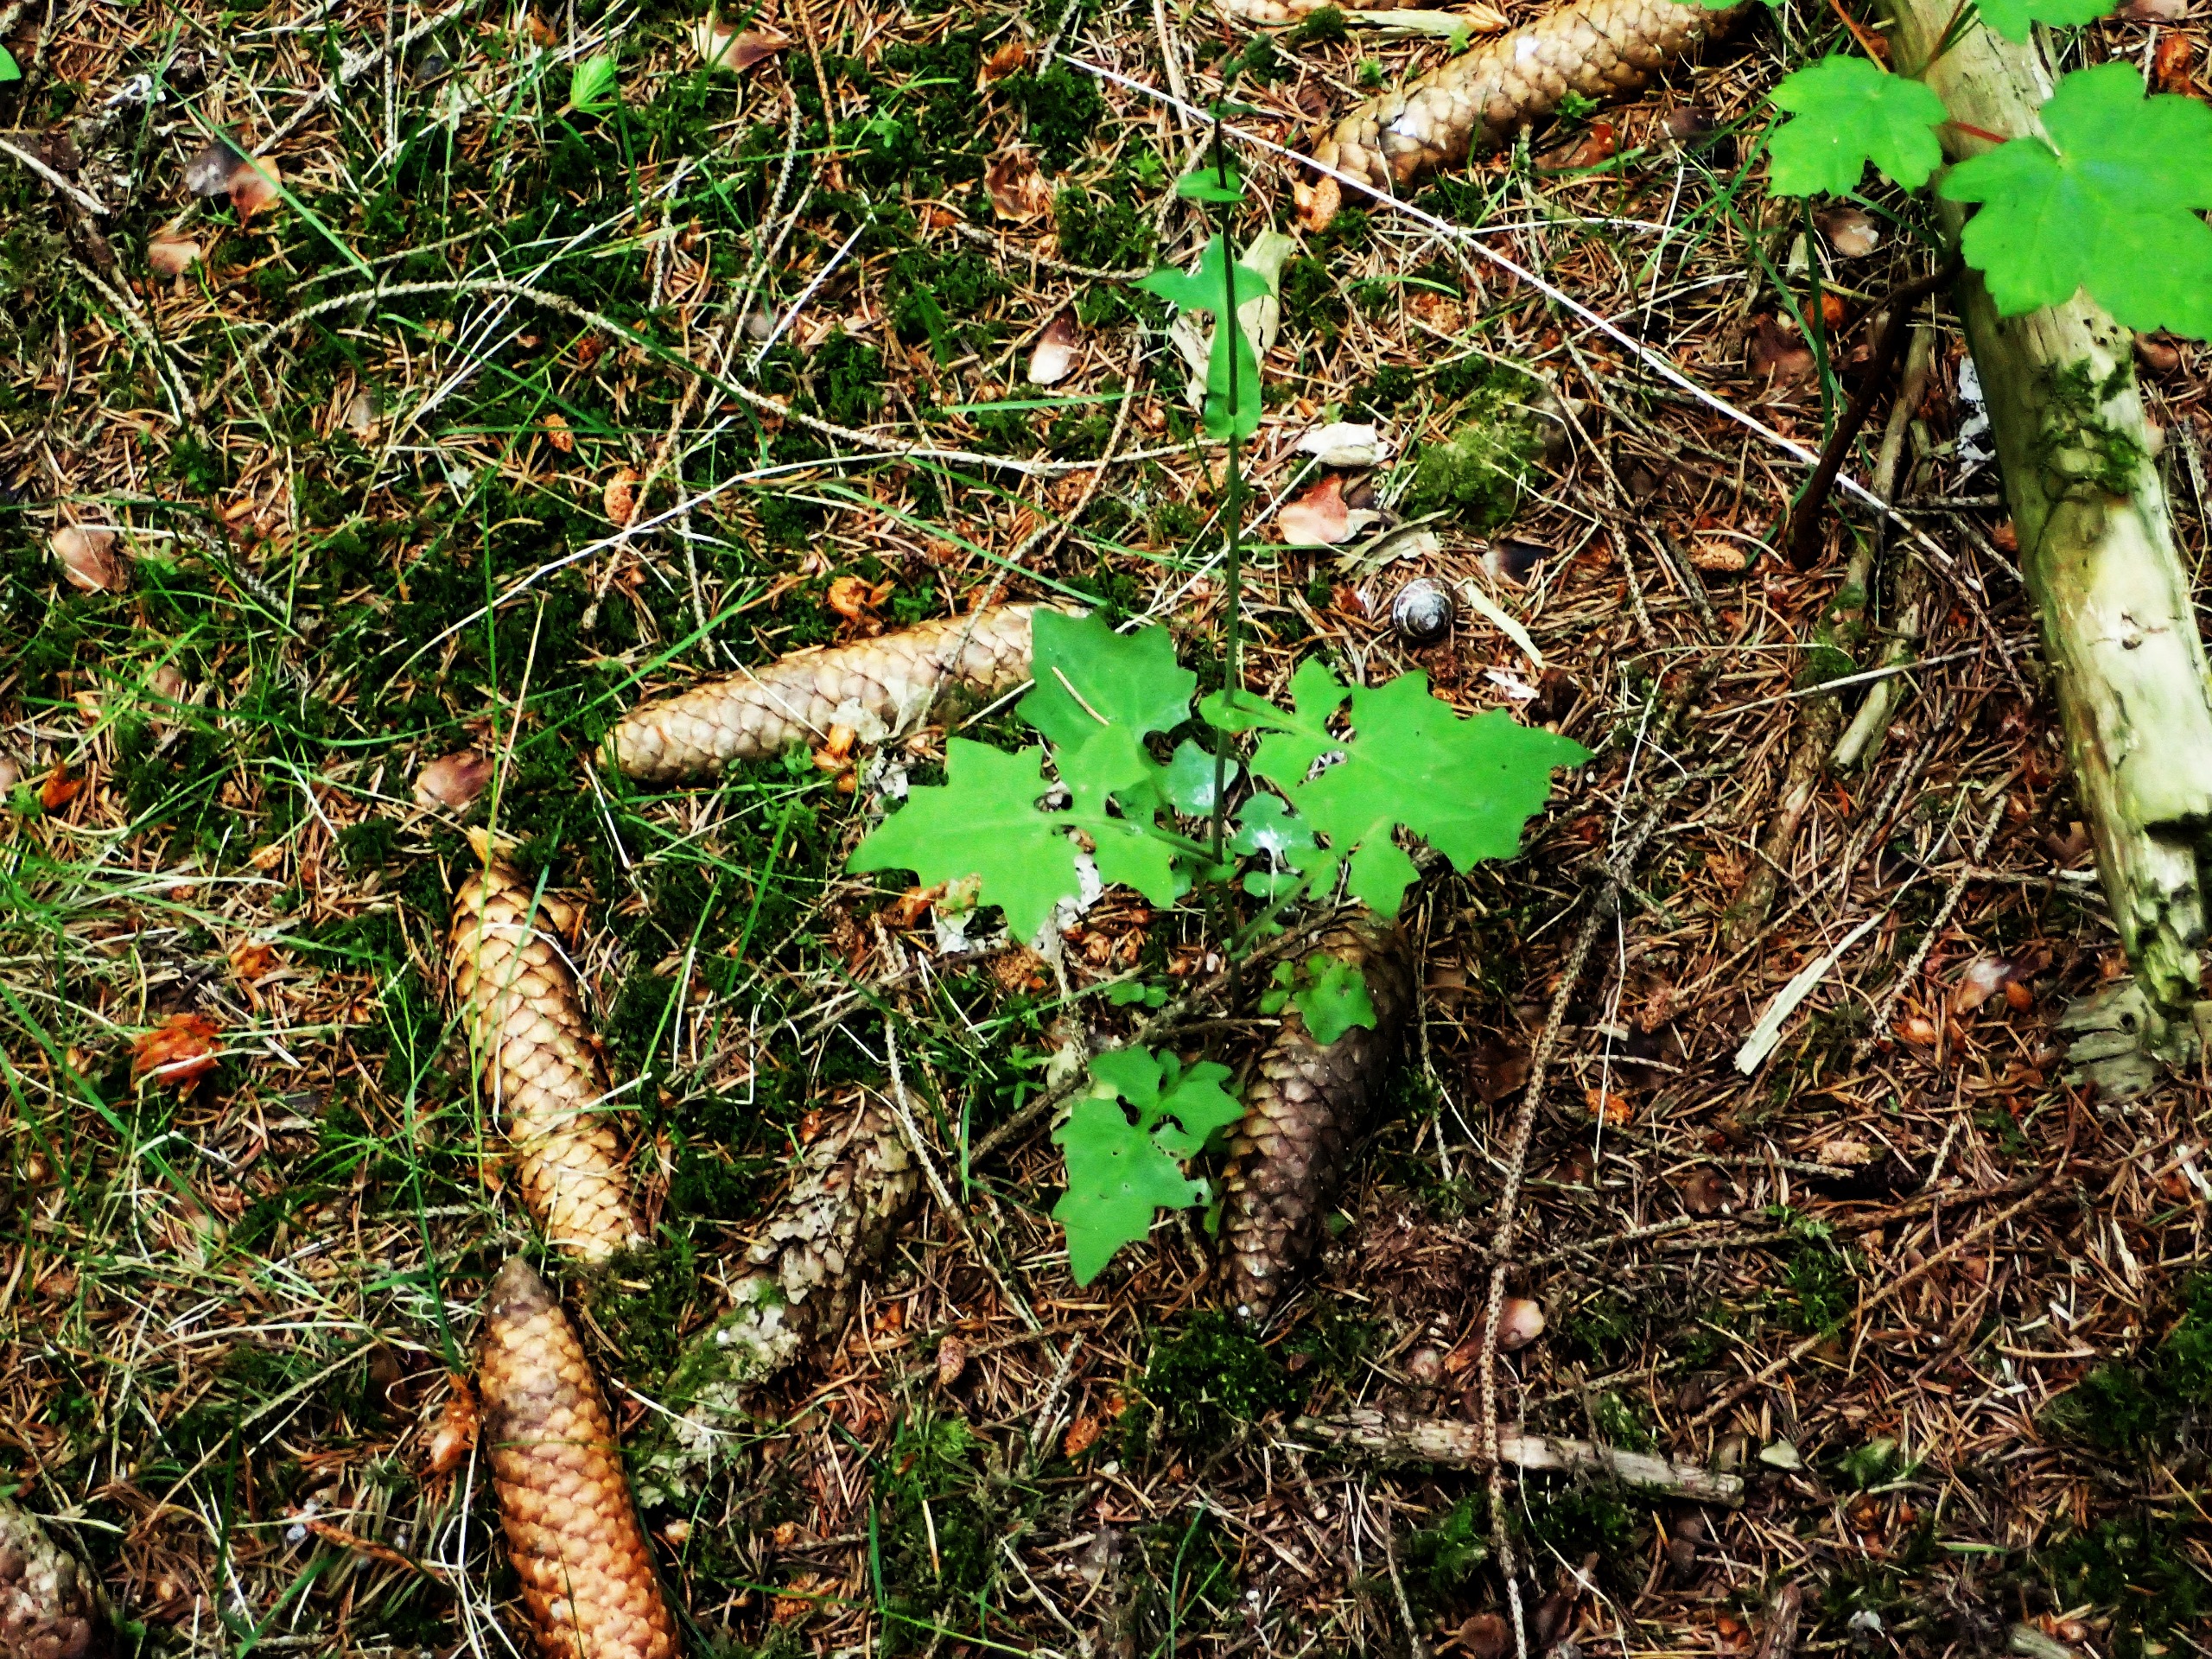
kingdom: Plantae
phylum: Tracheophyta
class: Magnoliopsida
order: Asterales
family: Asteraceae
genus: Mycelis
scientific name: Mycelis muralis
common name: Skov-salat
